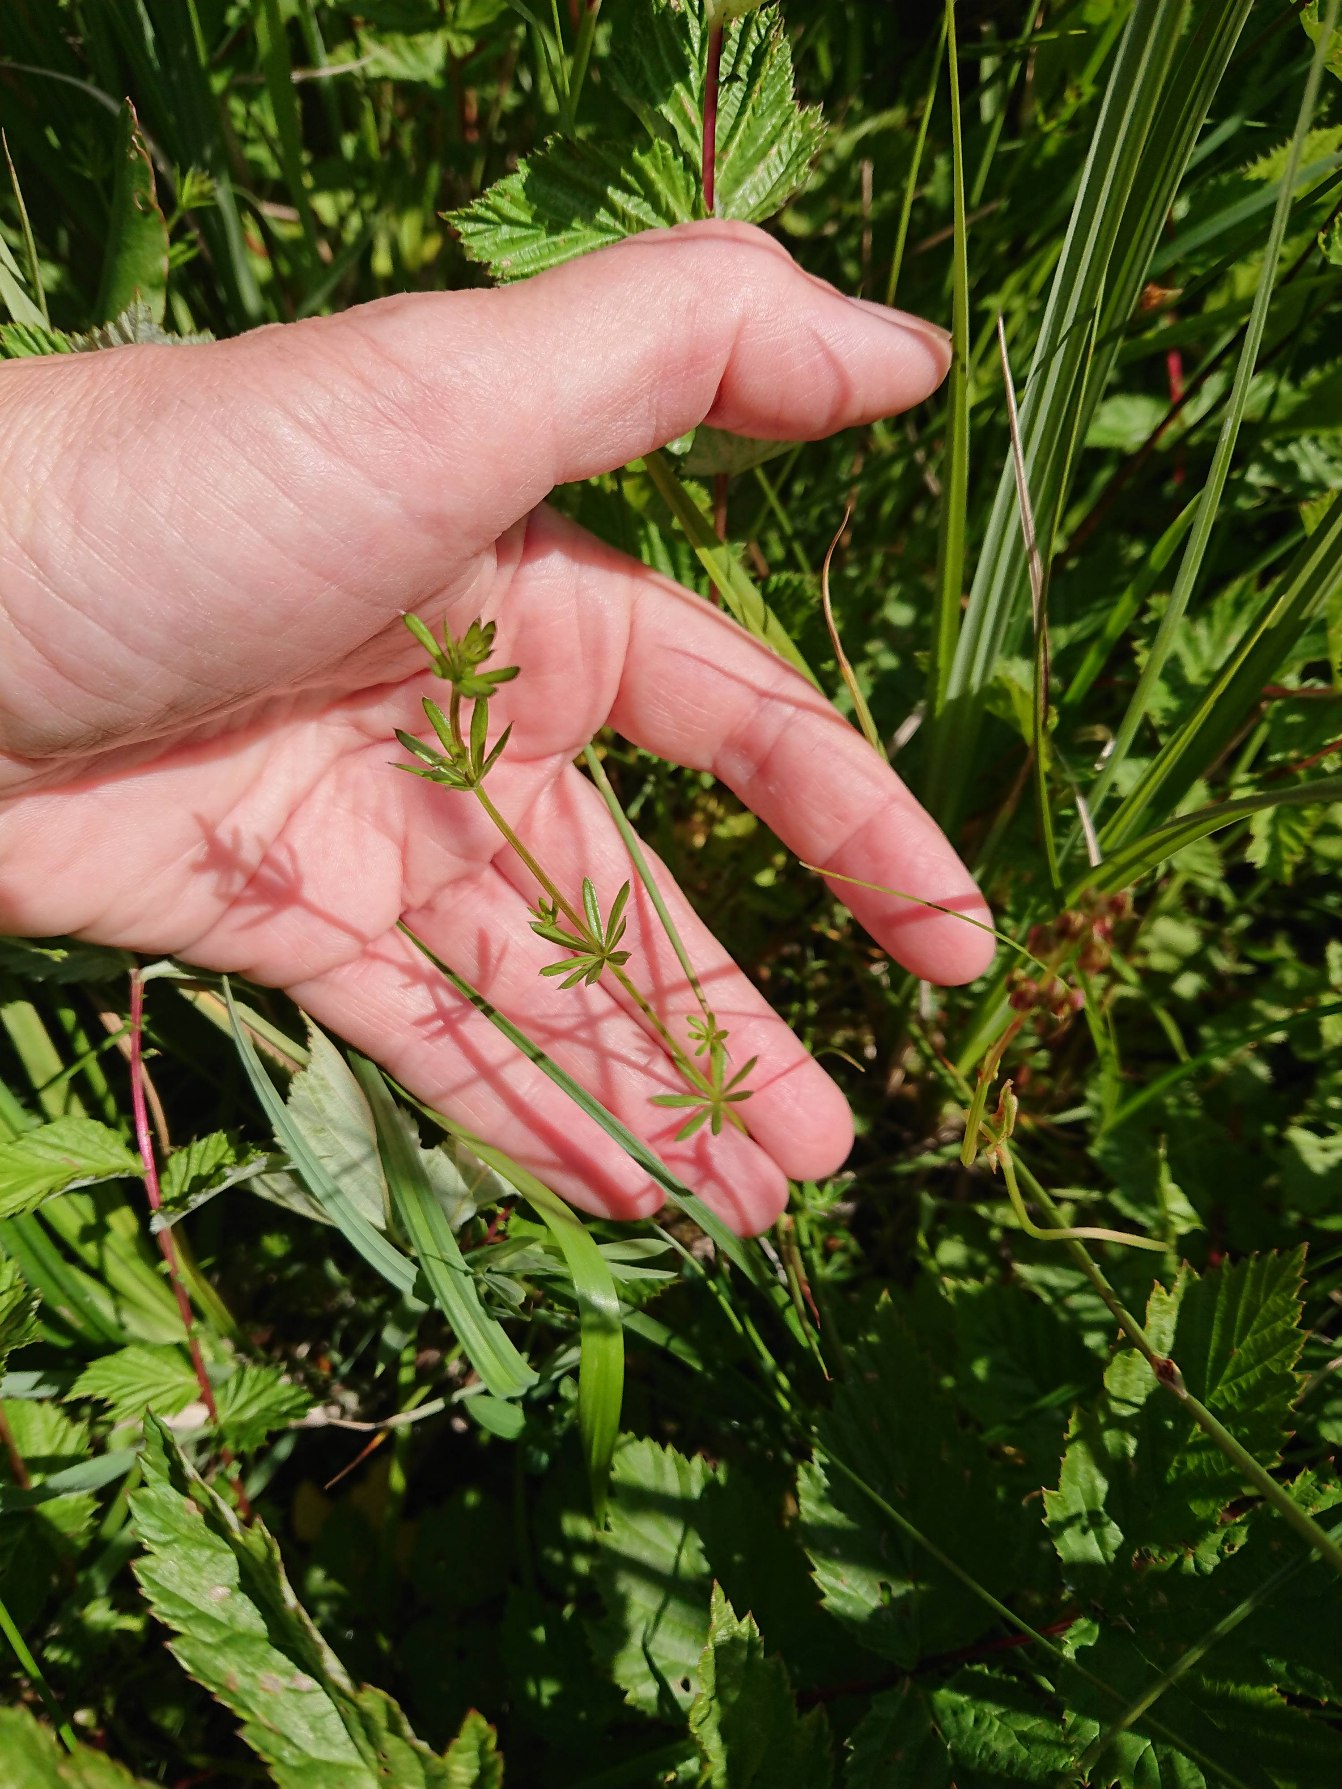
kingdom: Plantae
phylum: Tracheophyta
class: Magnoliopsida
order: Gentianales
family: Rubiaceae
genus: Galium
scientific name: Galium uliginosum
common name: Sump-snerre
